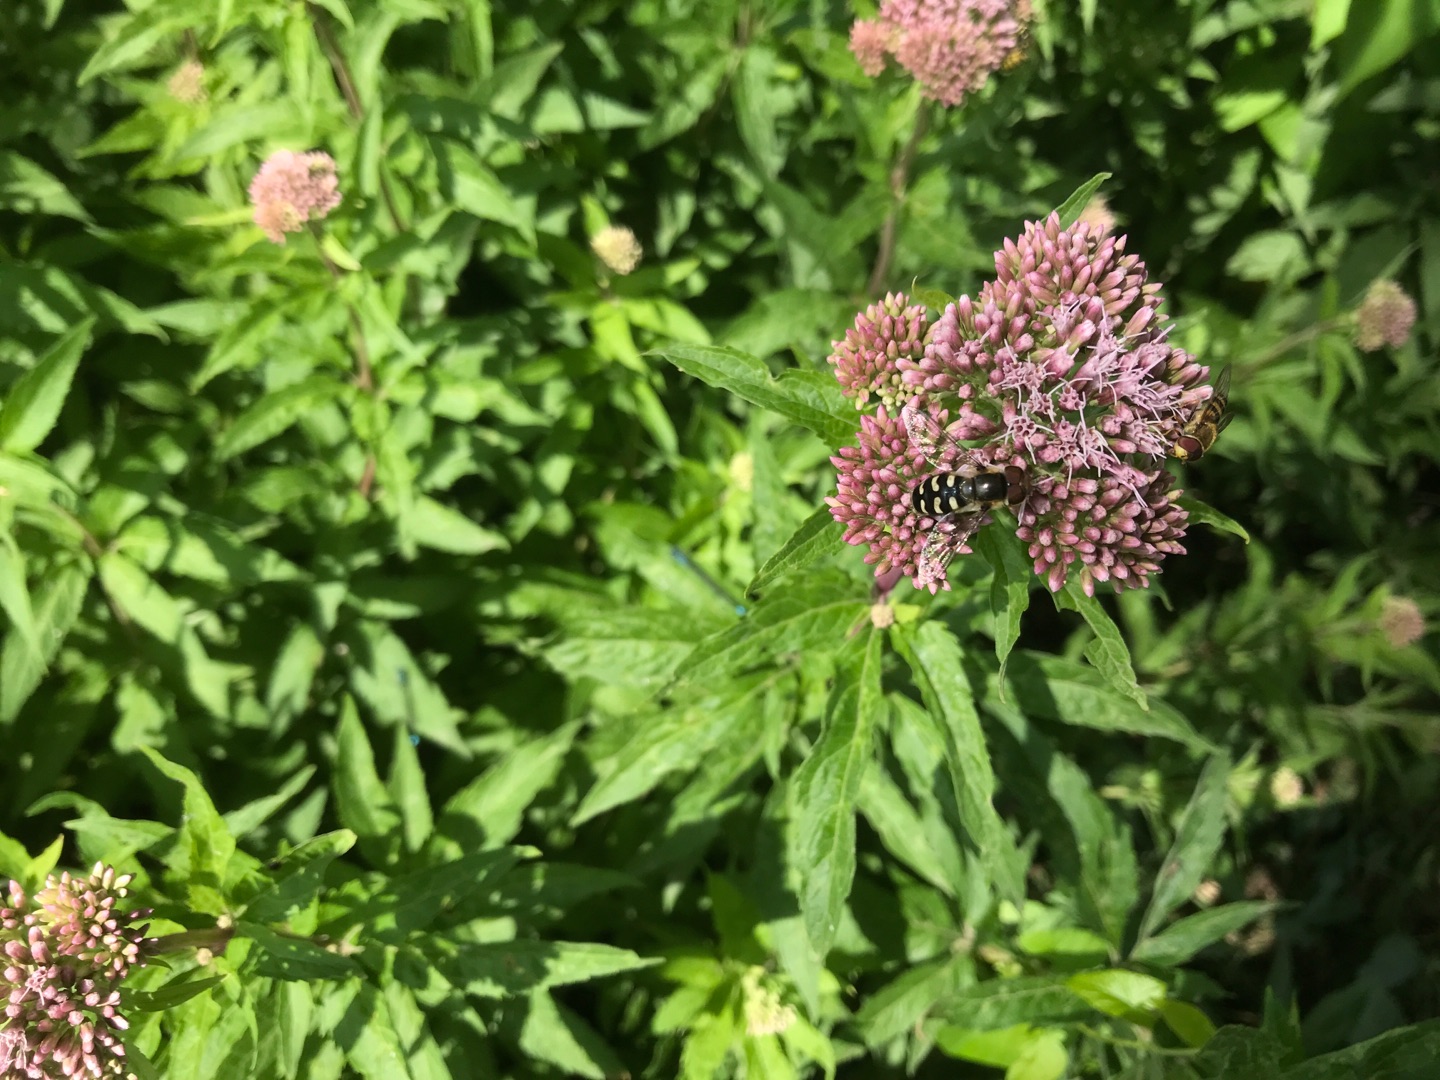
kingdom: Animalia
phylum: Arthropoda
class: Insecta
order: Diptera
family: Syrphidae
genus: Scaeva
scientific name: Scaeva pyrastri
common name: Hvidplettet agersvirreflue
